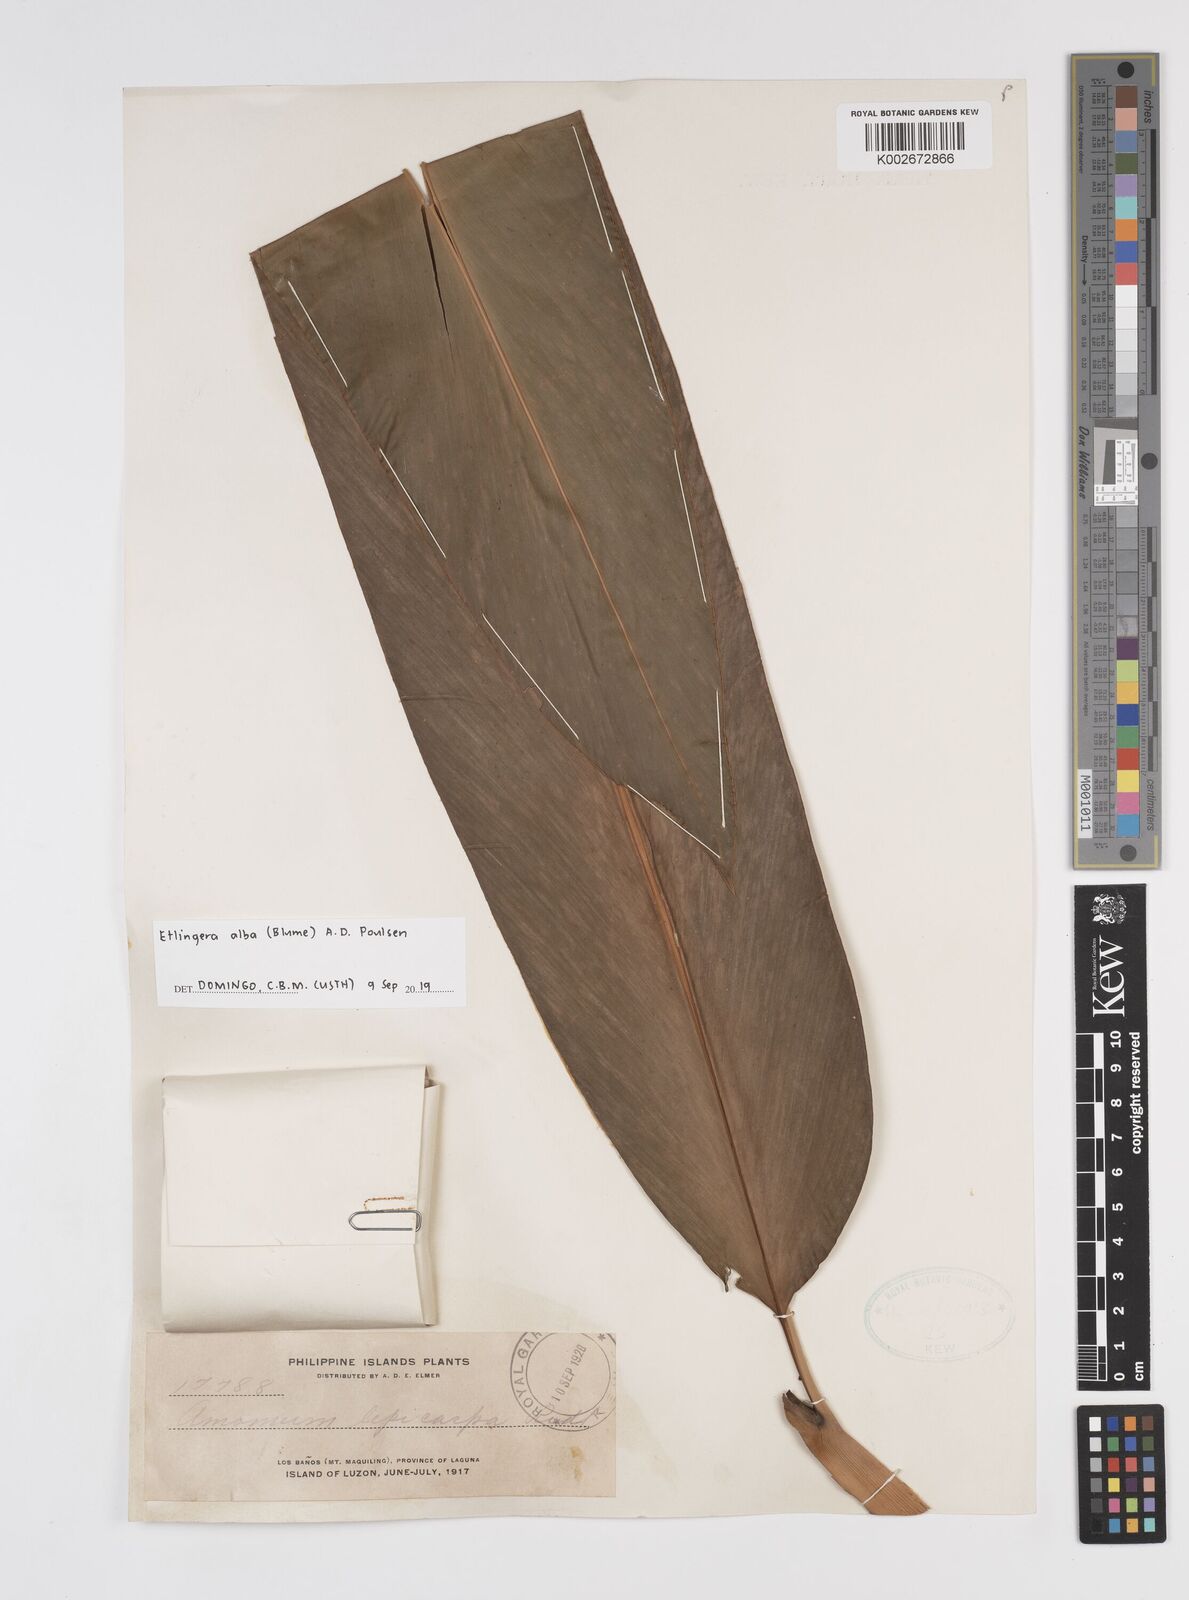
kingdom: Plantae
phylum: Tracheophyta
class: Liliopsida
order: Zingiberales
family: Zingiberaceae
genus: Etlingera
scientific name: Etlingera alba
